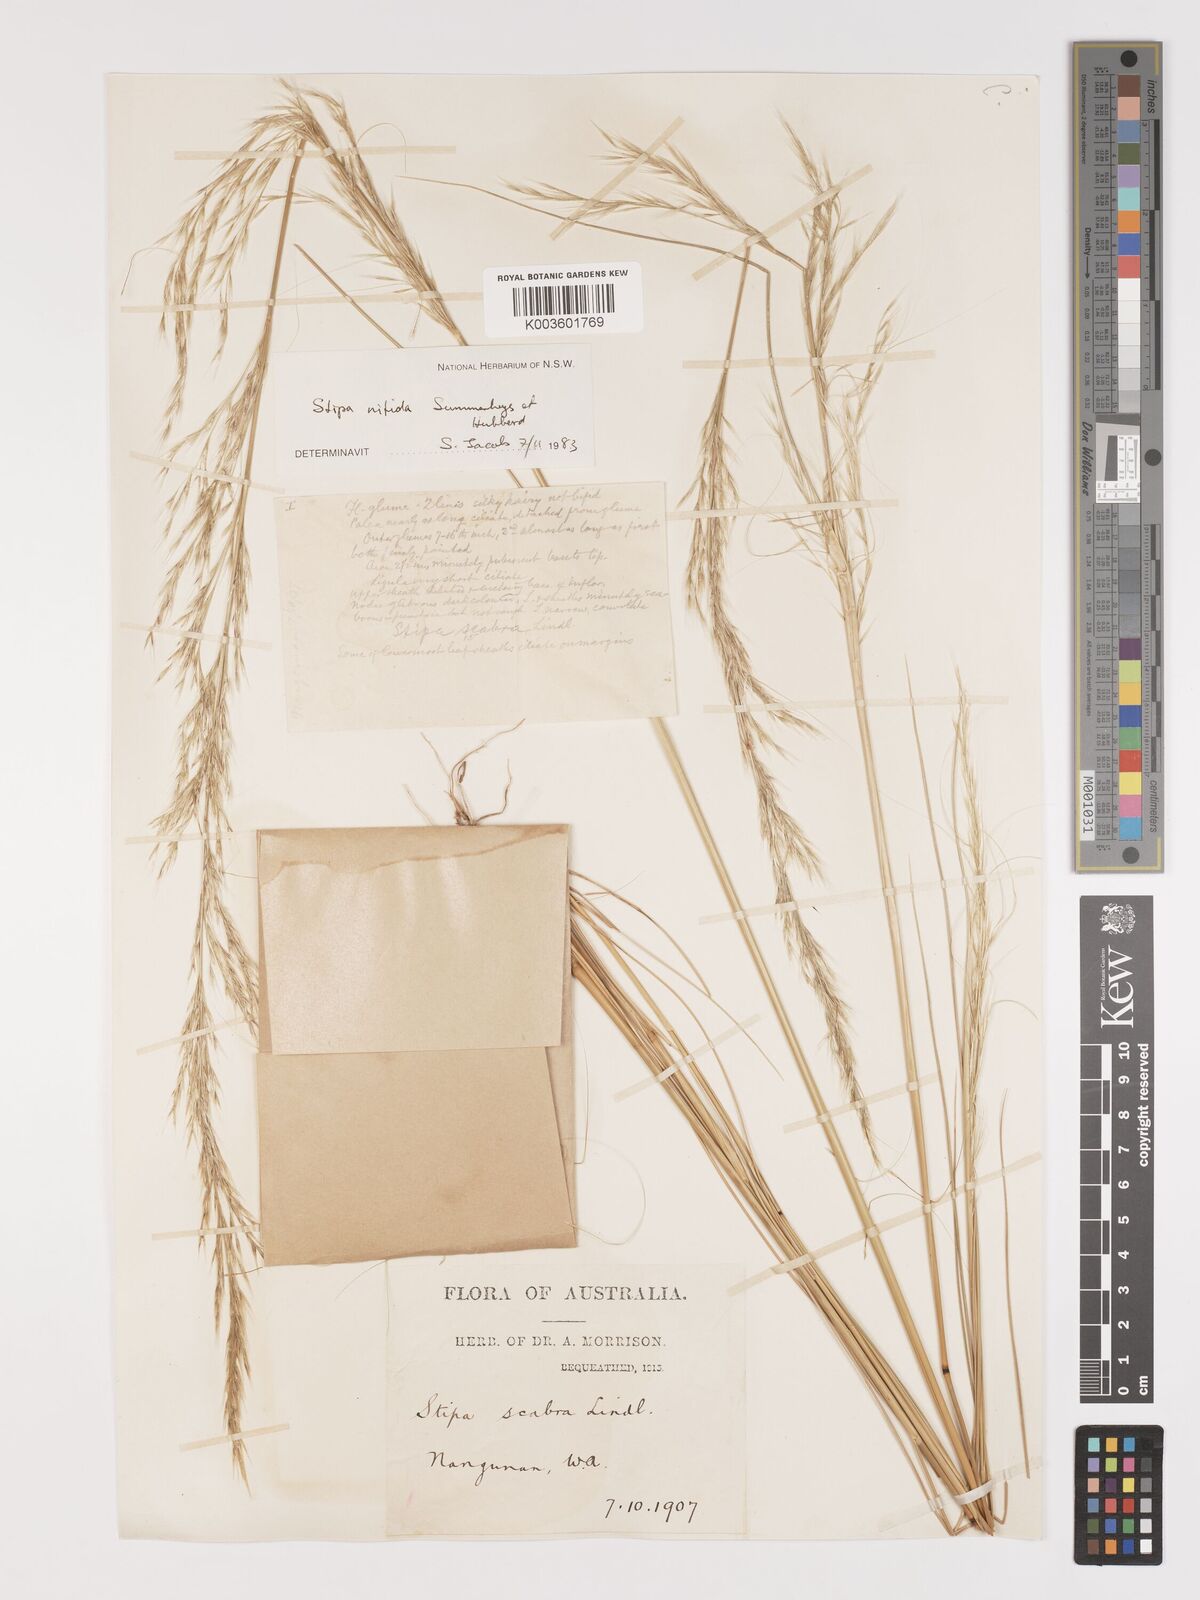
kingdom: Plantae
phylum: Tracheophyta
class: Liliopsida
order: Poales
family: Poaceae
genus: Austrostipa
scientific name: Austrostipa nitida
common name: Balcarra grass
